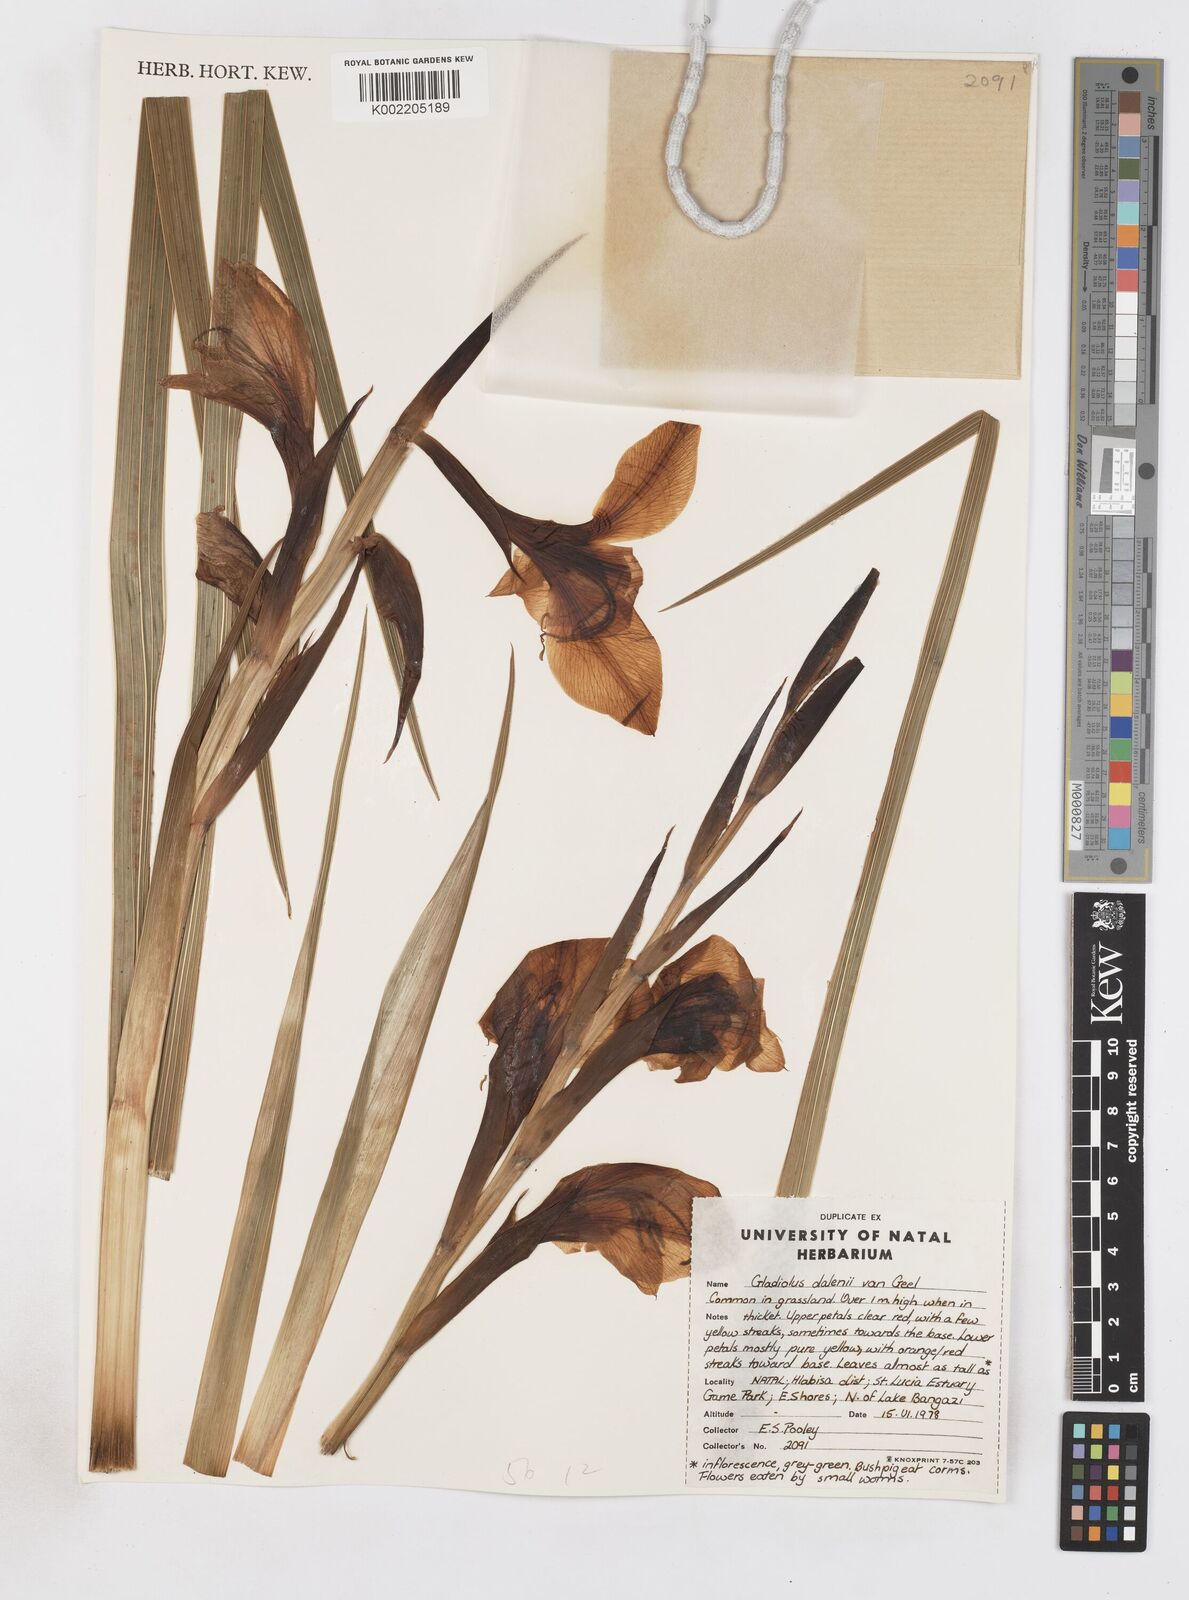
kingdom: Plantae
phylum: Tracheophyta
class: Liliopsida
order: Asparagales
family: Iridaceae
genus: Gladiolus
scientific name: Gladiolus dalenii
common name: Cornflag
